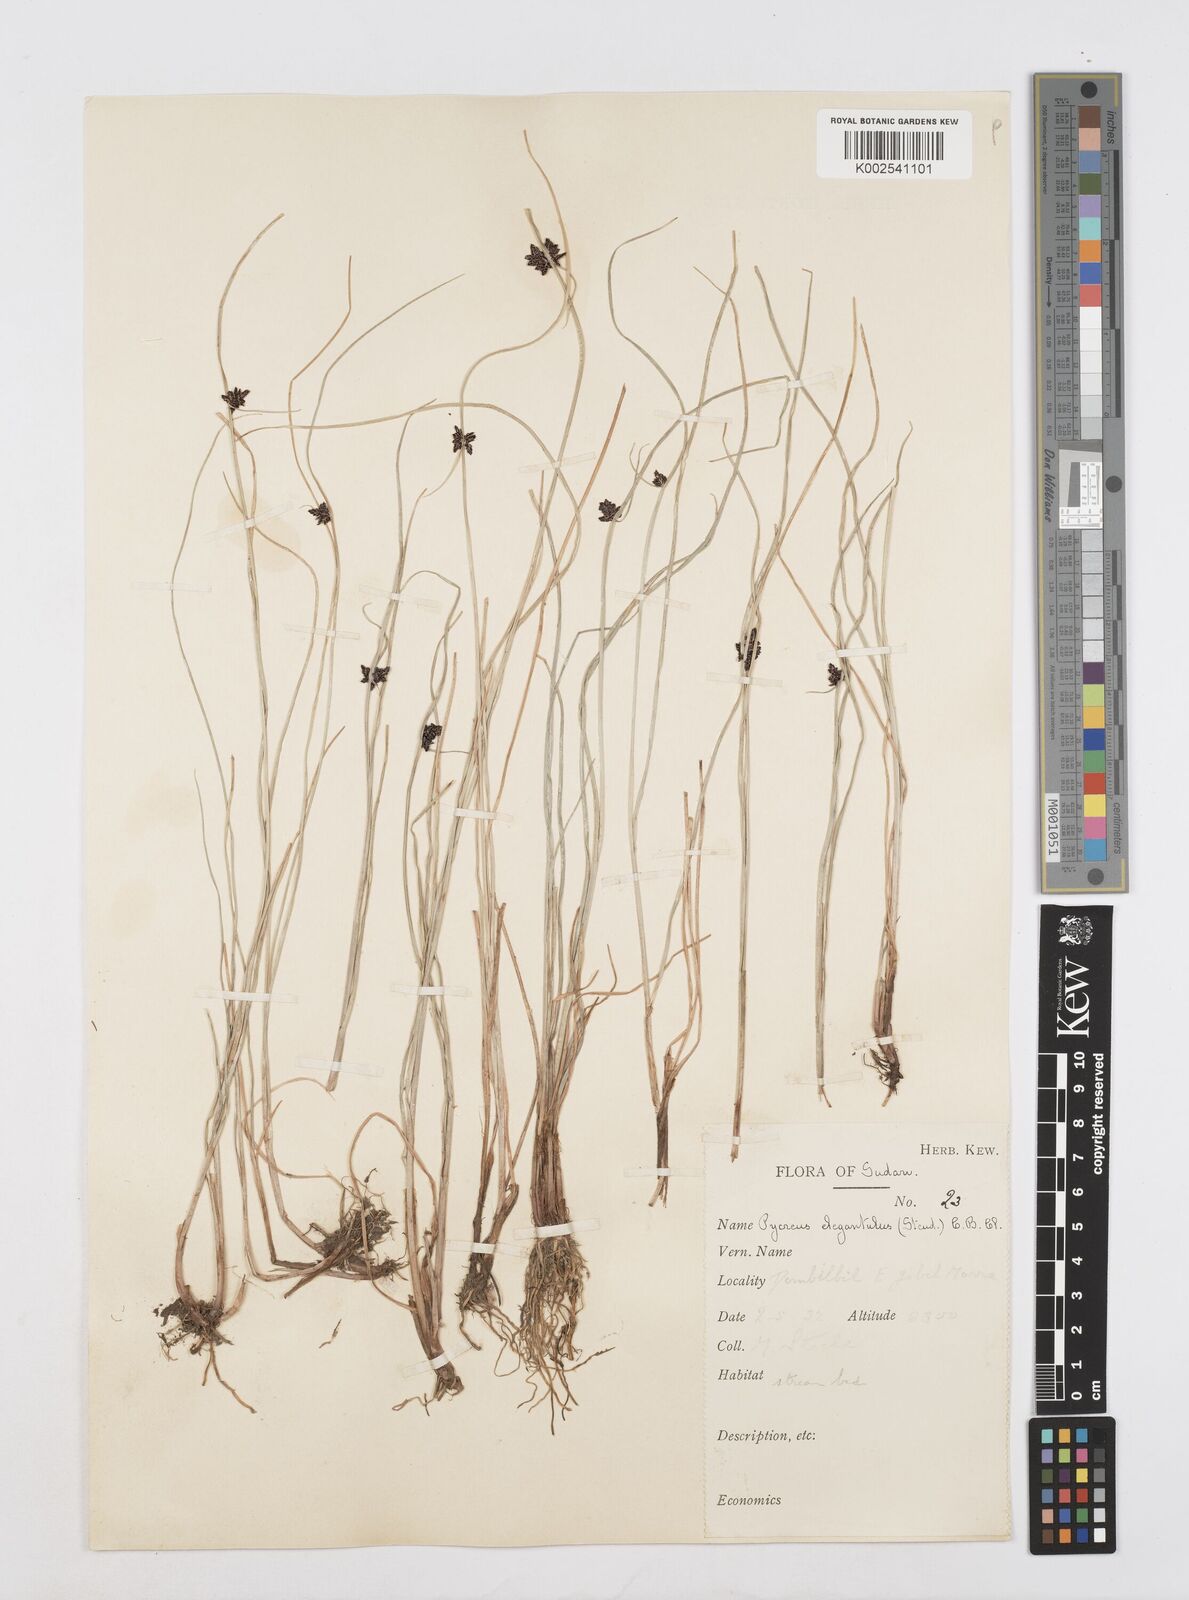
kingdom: Plantae
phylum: Tracheophyta
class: Liliopsida
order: Poales
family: Cyperaceae
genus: Cyperus
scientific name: Cyperus elegantulus
